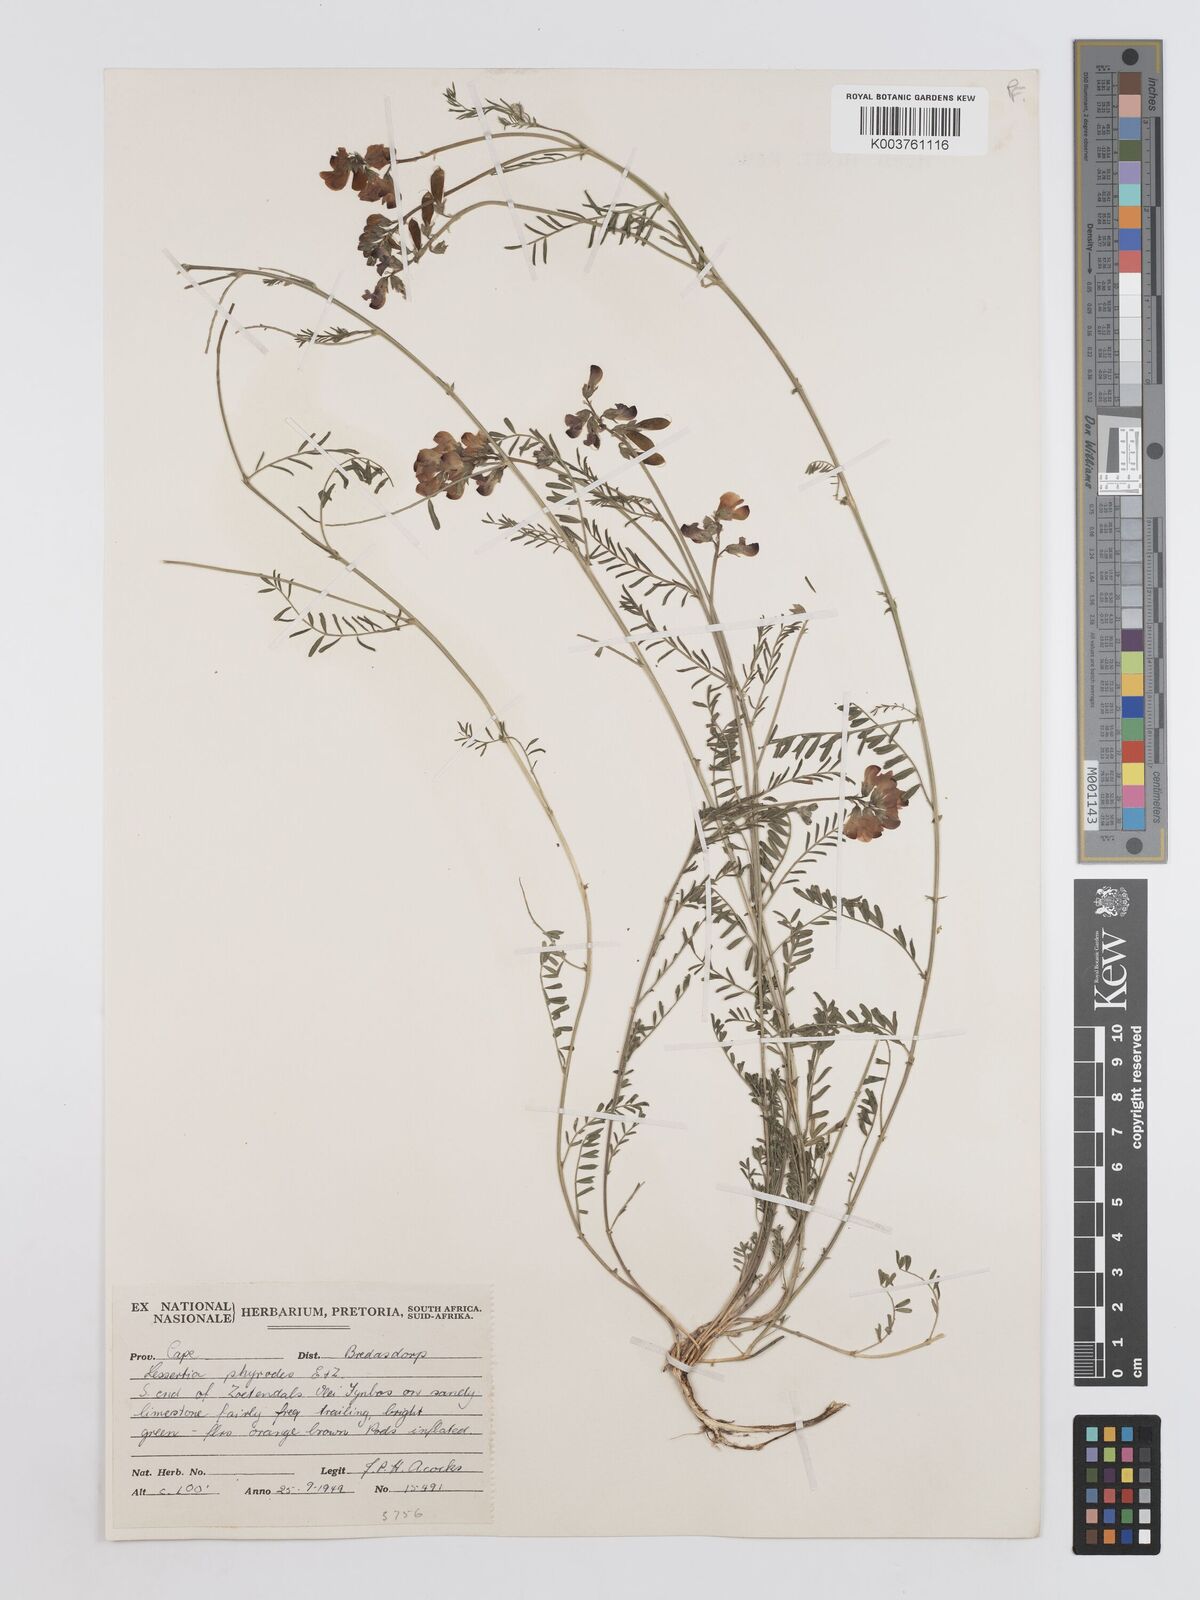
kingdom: Plantae
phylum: Tracheophyta
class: Magnoliopsida
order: Fabales
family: Fabaceae
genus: Lessertia
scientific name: Lessertia physodes
